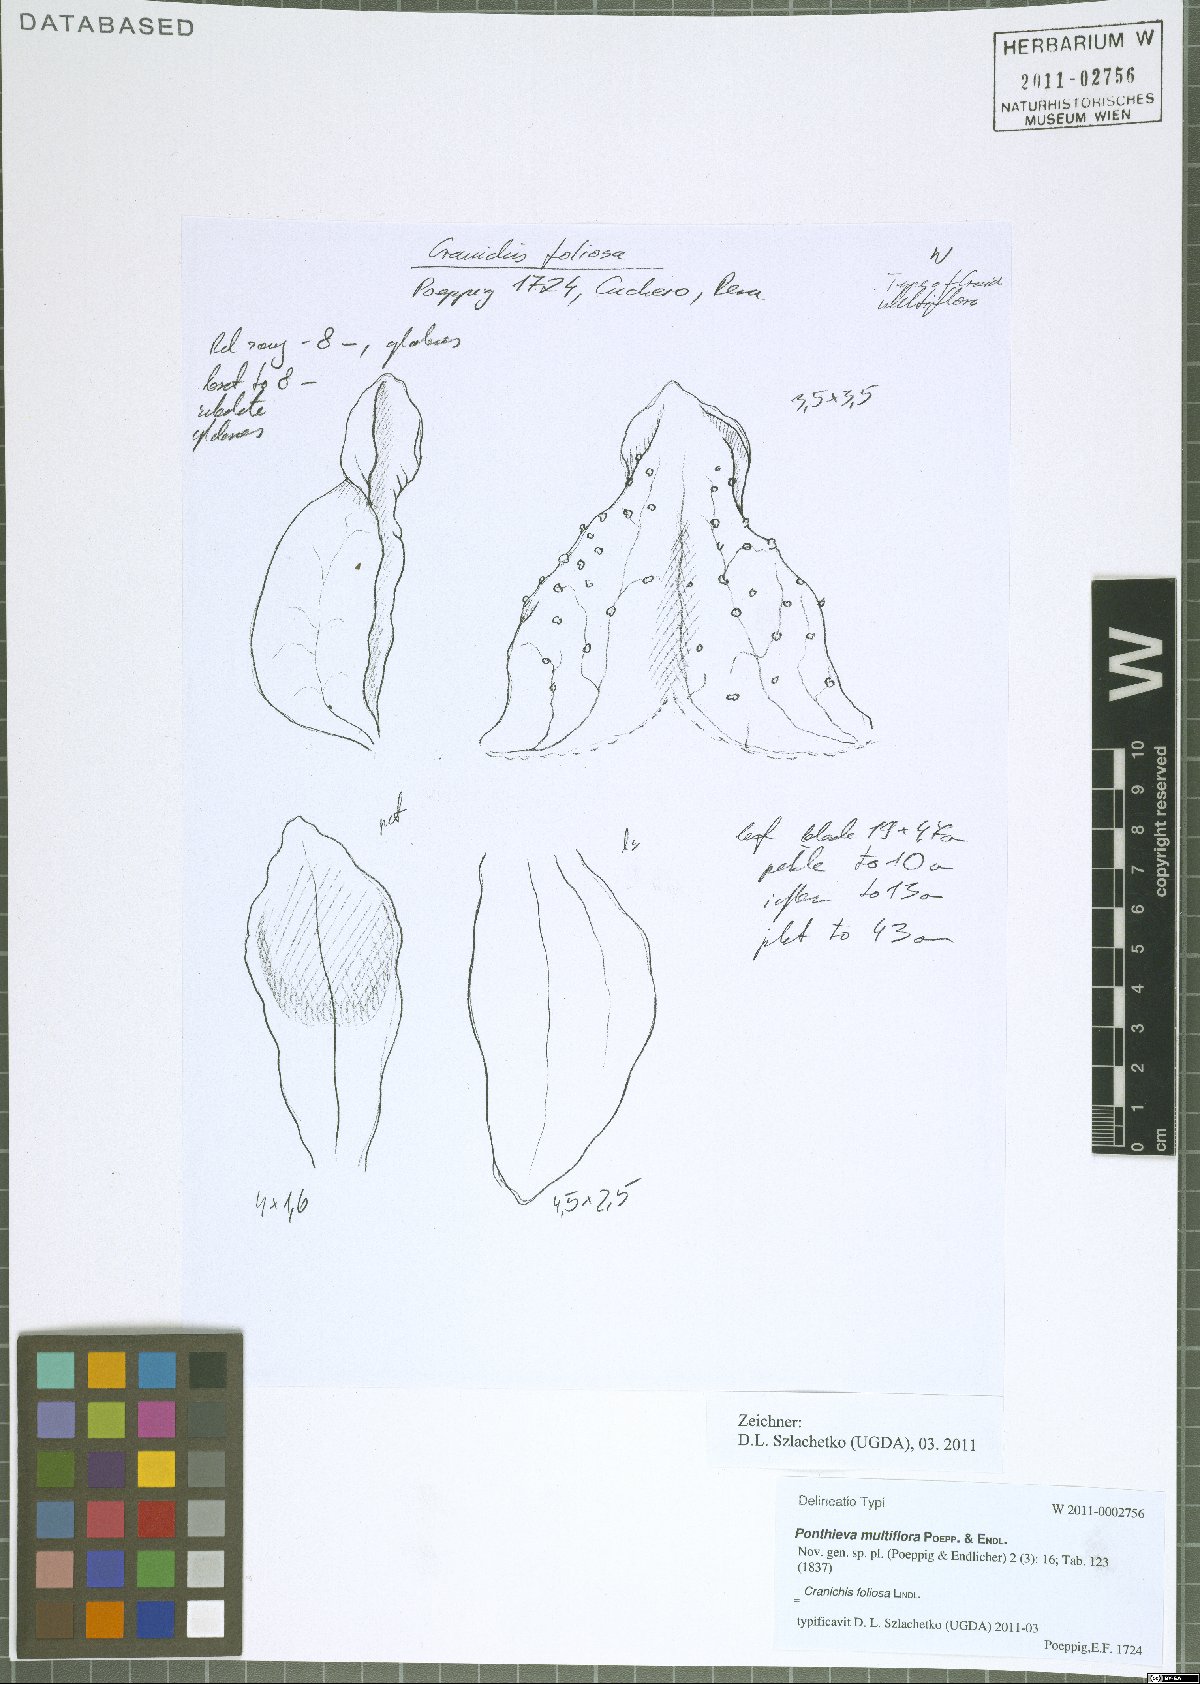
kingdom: Plantae
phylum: Tracheophyta
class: Liliopsida
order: Asparagales
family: Orchidaceae
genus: Cranichis
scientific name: Cranichis foliosa
